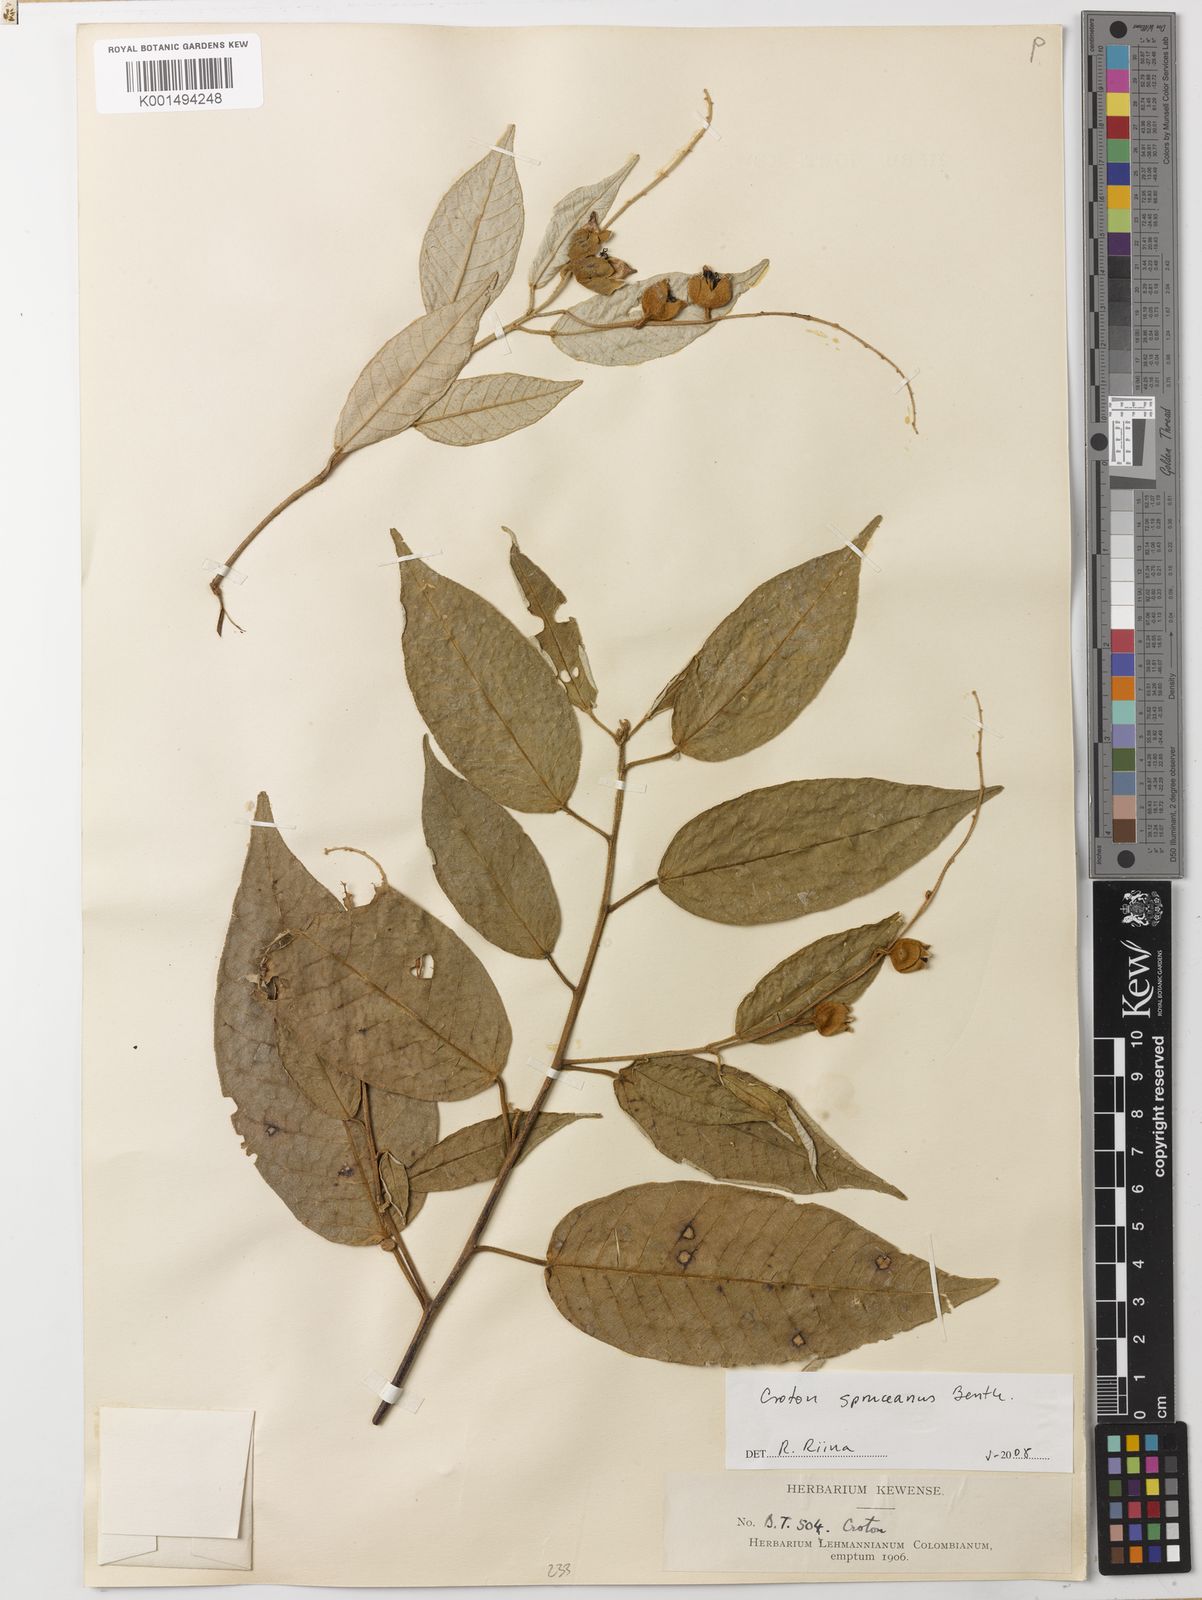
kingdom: Plantae
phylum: Tracheophyta
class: Magnoliopsida
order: Malpighiales
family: Euphorbiaceae
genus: Croton
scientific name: Croton spruceanus
